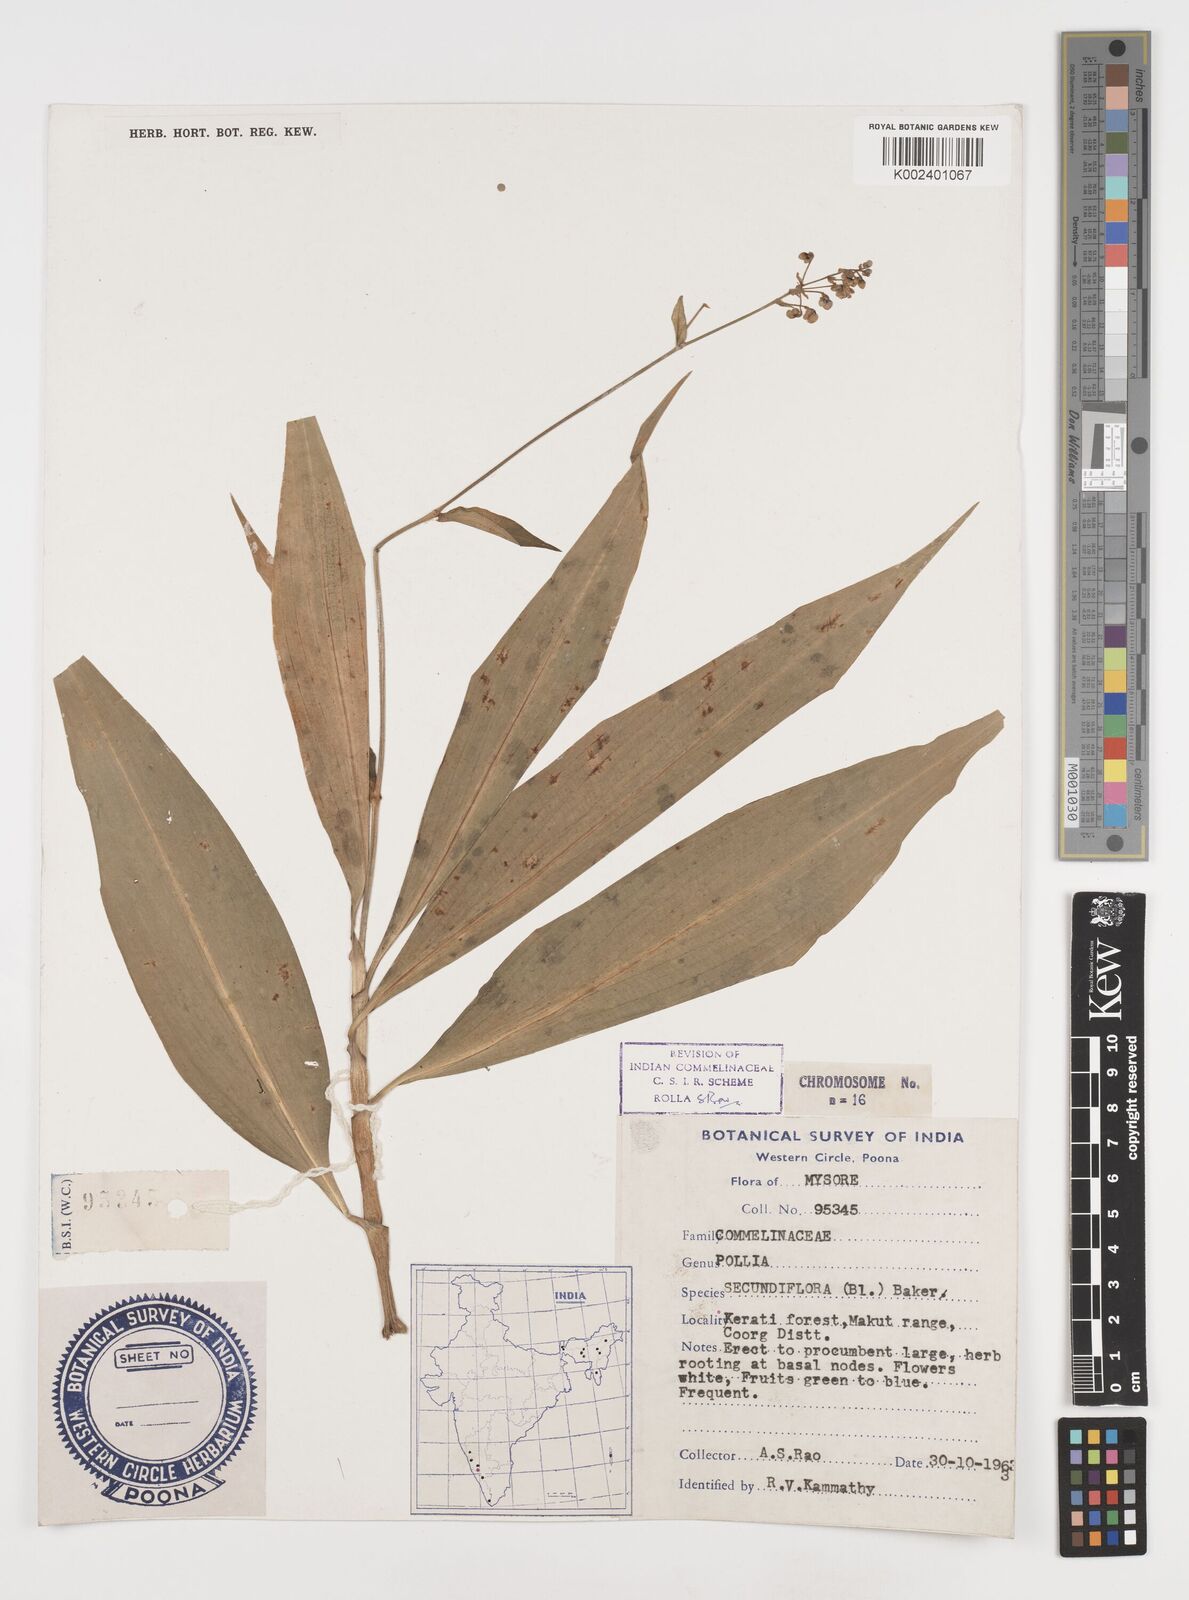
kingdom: Plantae
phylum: Tracheophyta
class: Liliopsida
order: Commelinales
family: Commelinaceae
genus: Pollia
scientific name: Pollia secundiflora
